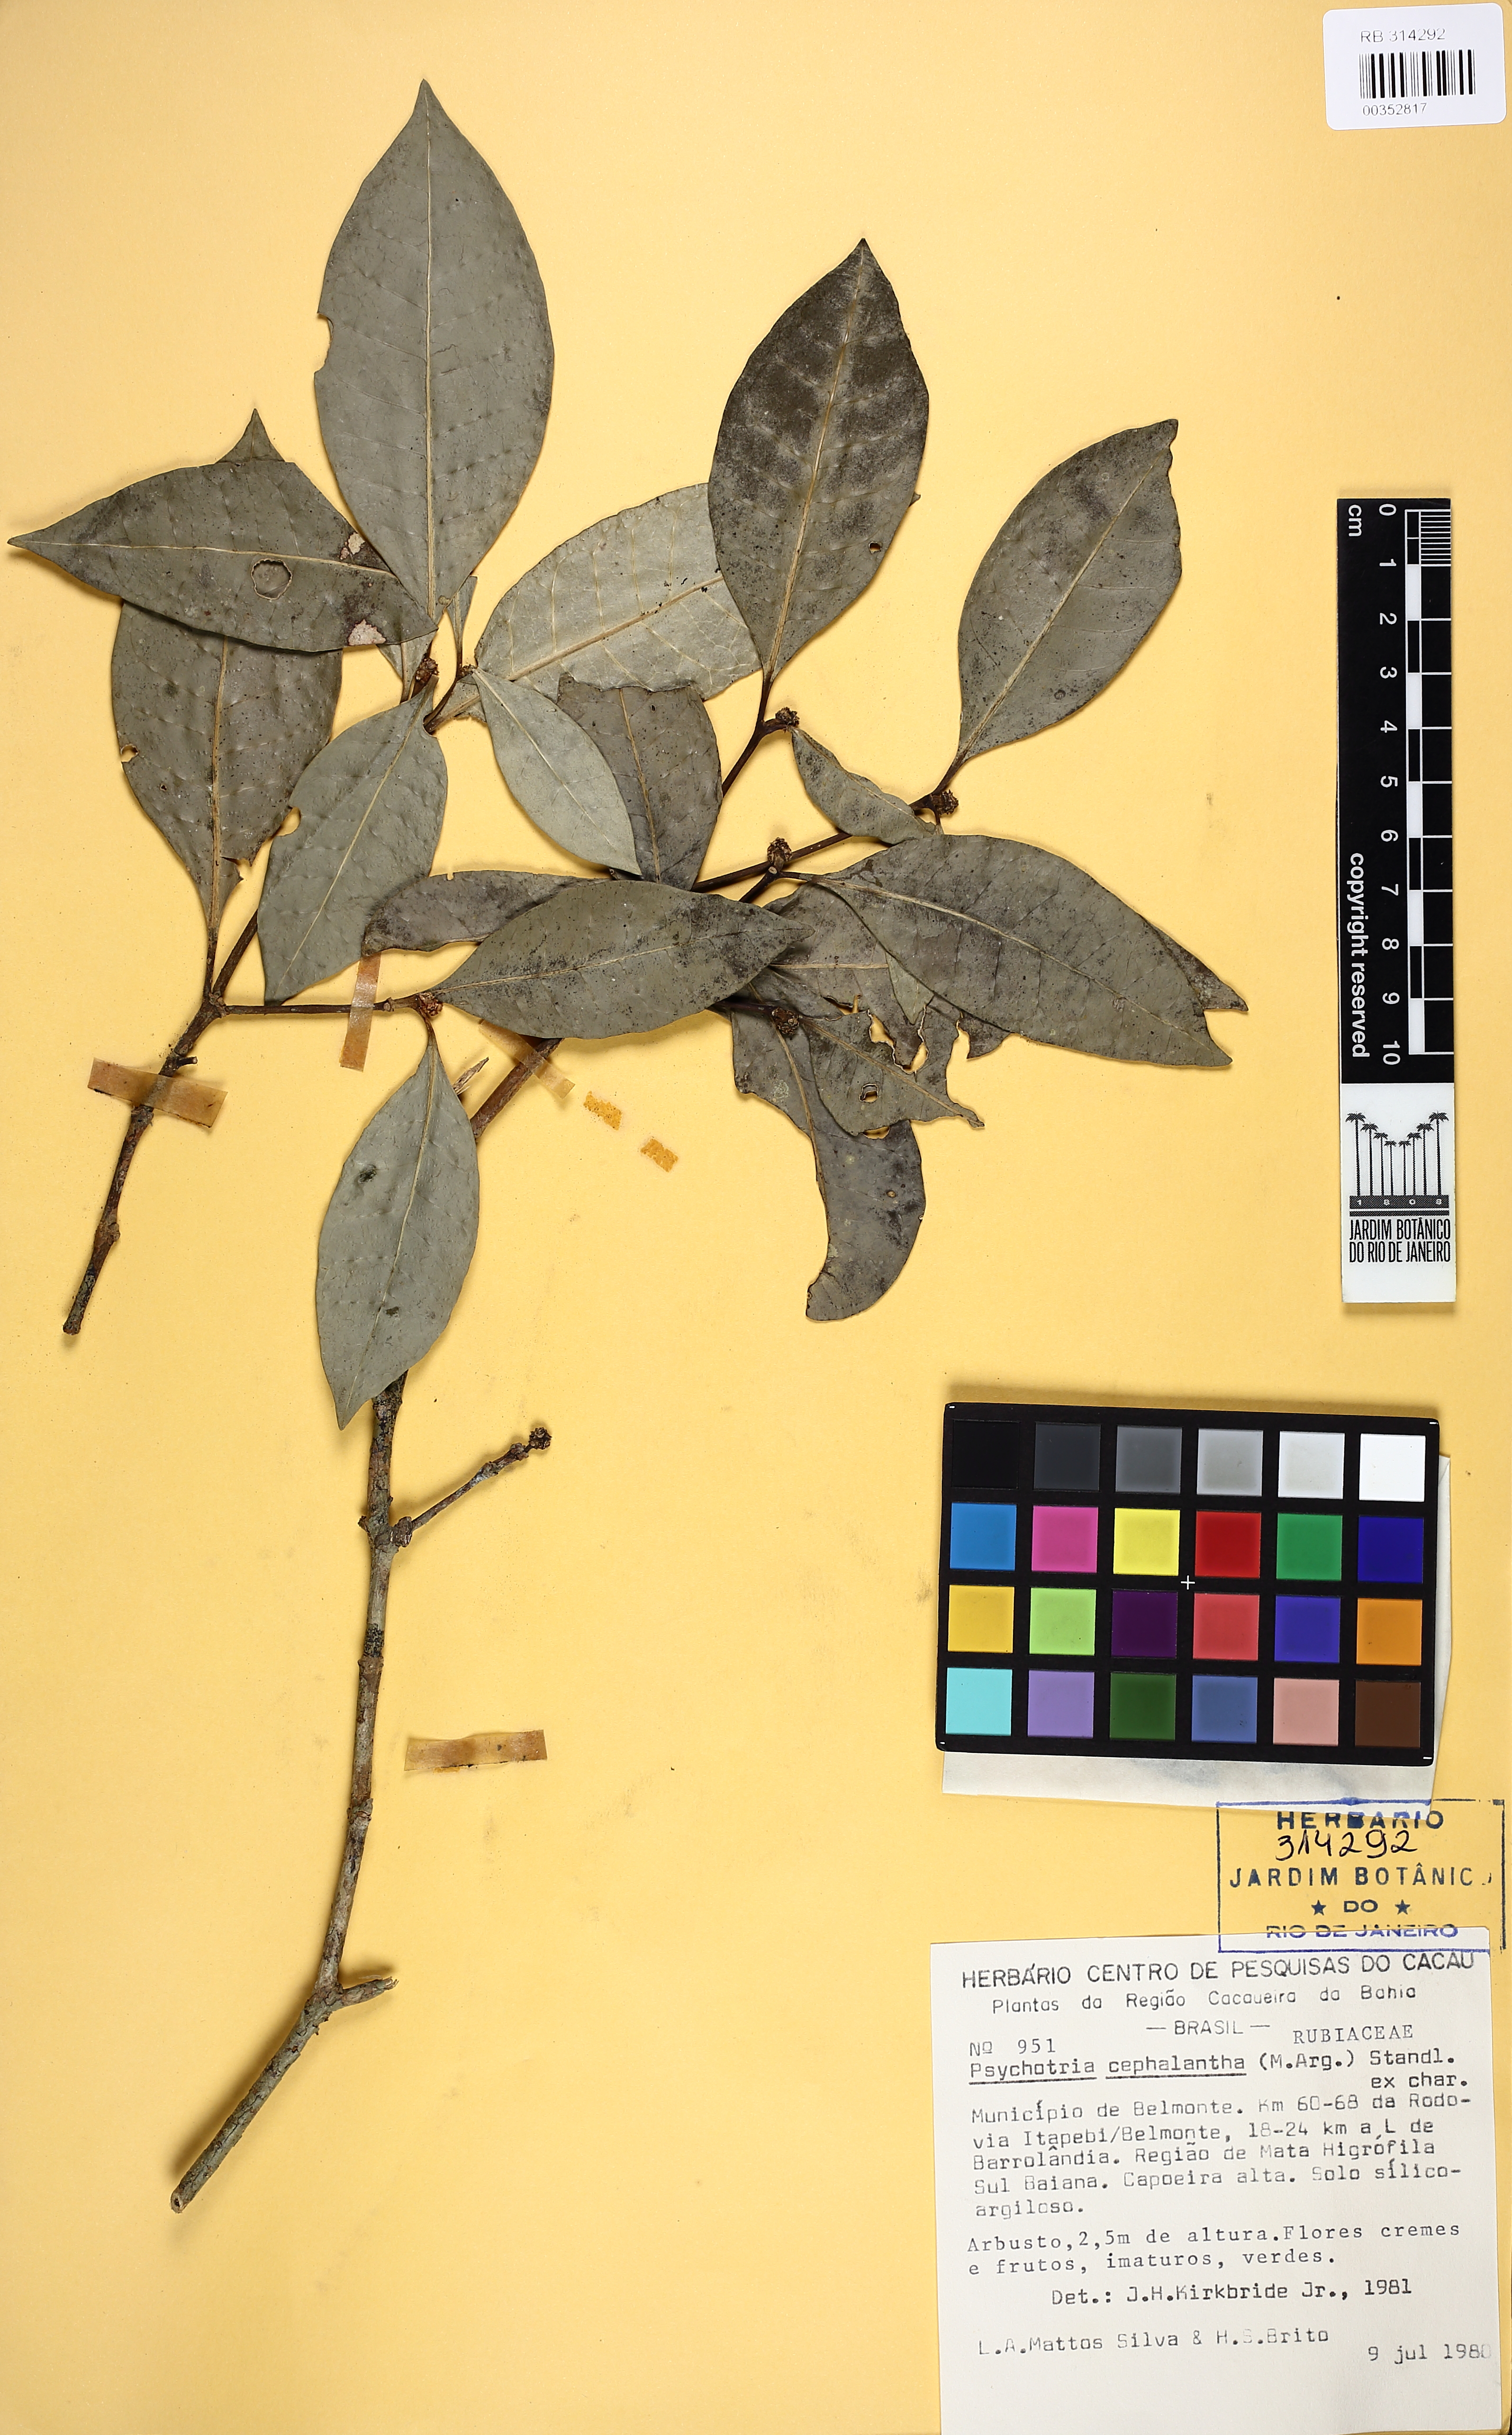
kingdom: Plantae
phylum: Tracheophyta
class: Magnoliopsida
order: Gentianales
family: Rubiaceae
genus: Eumachia
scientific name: Eumachia cephalantha
